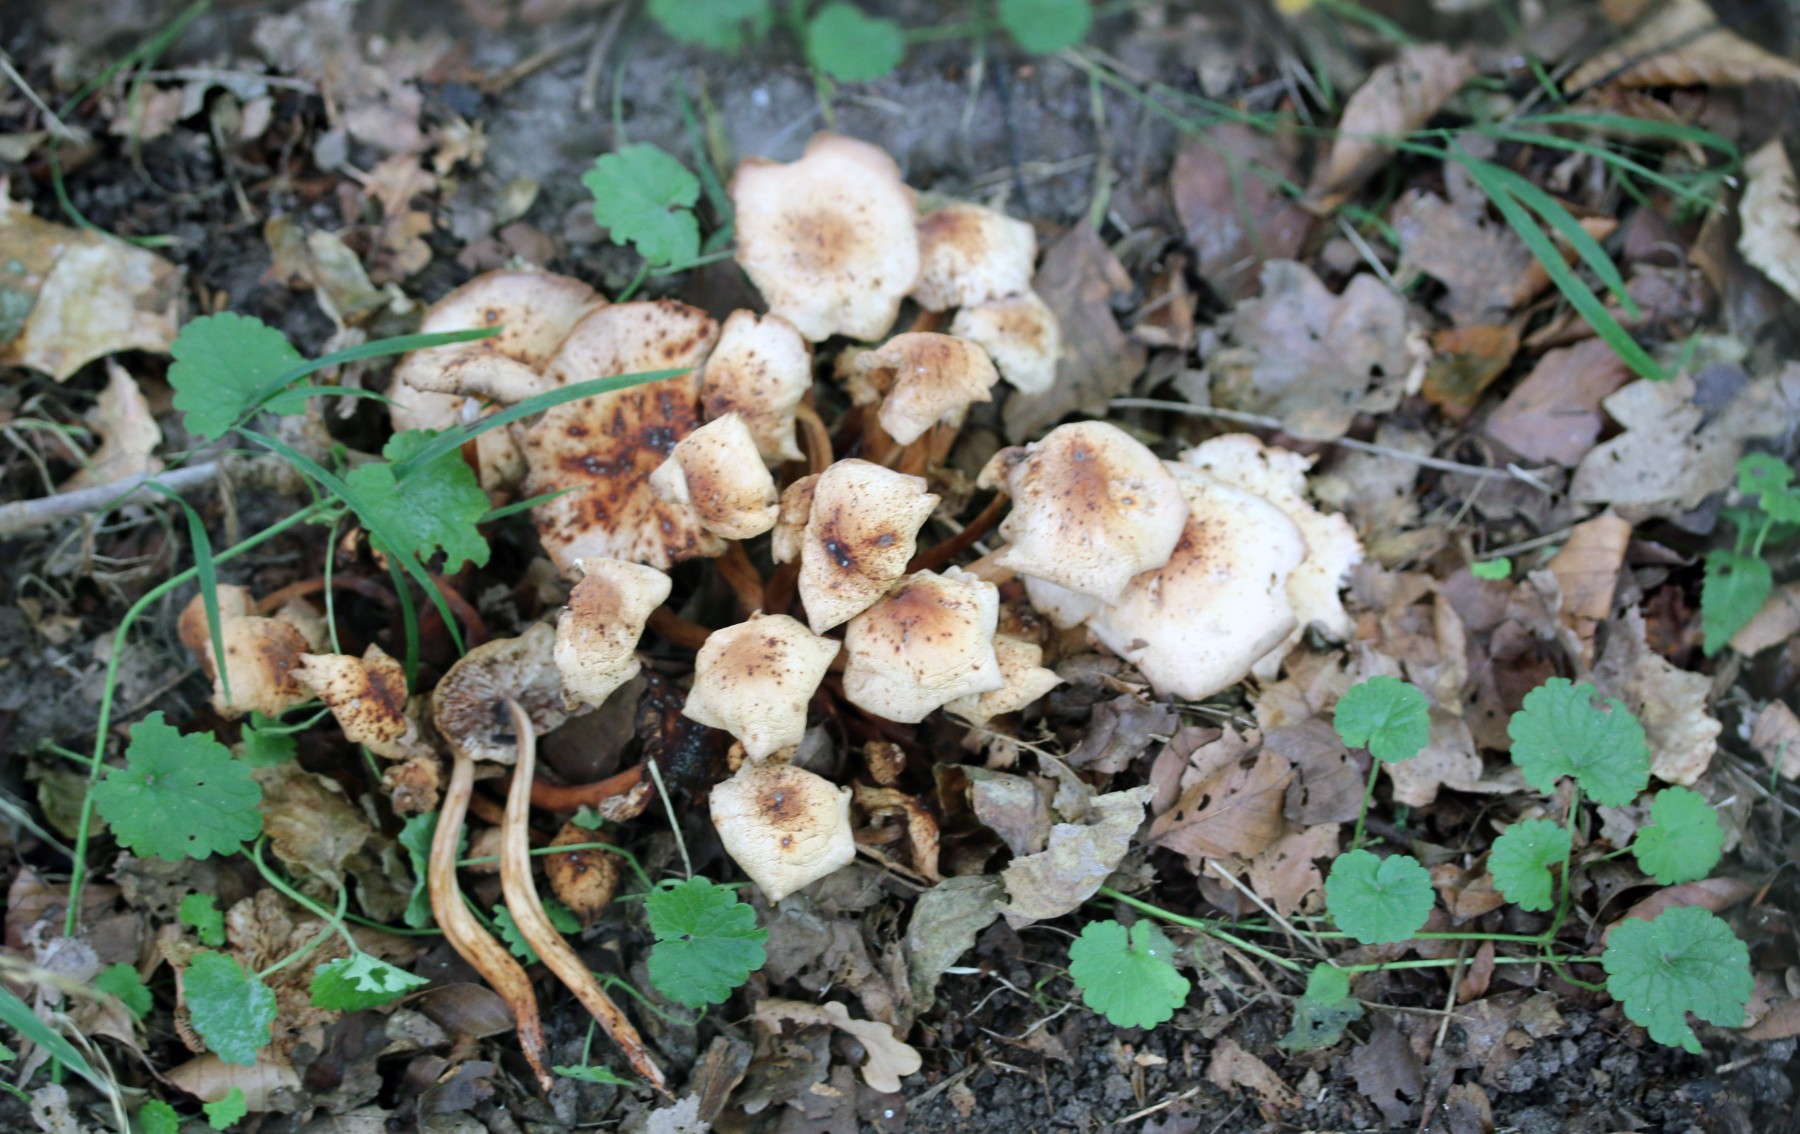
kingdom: Fungi
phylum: Basidiomycota
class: Agaricomycetes
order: Agaricales
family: Omphalotaceae
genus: Gymnopus
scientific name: Gymnopus fusipes
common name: tenstokket fladhat
